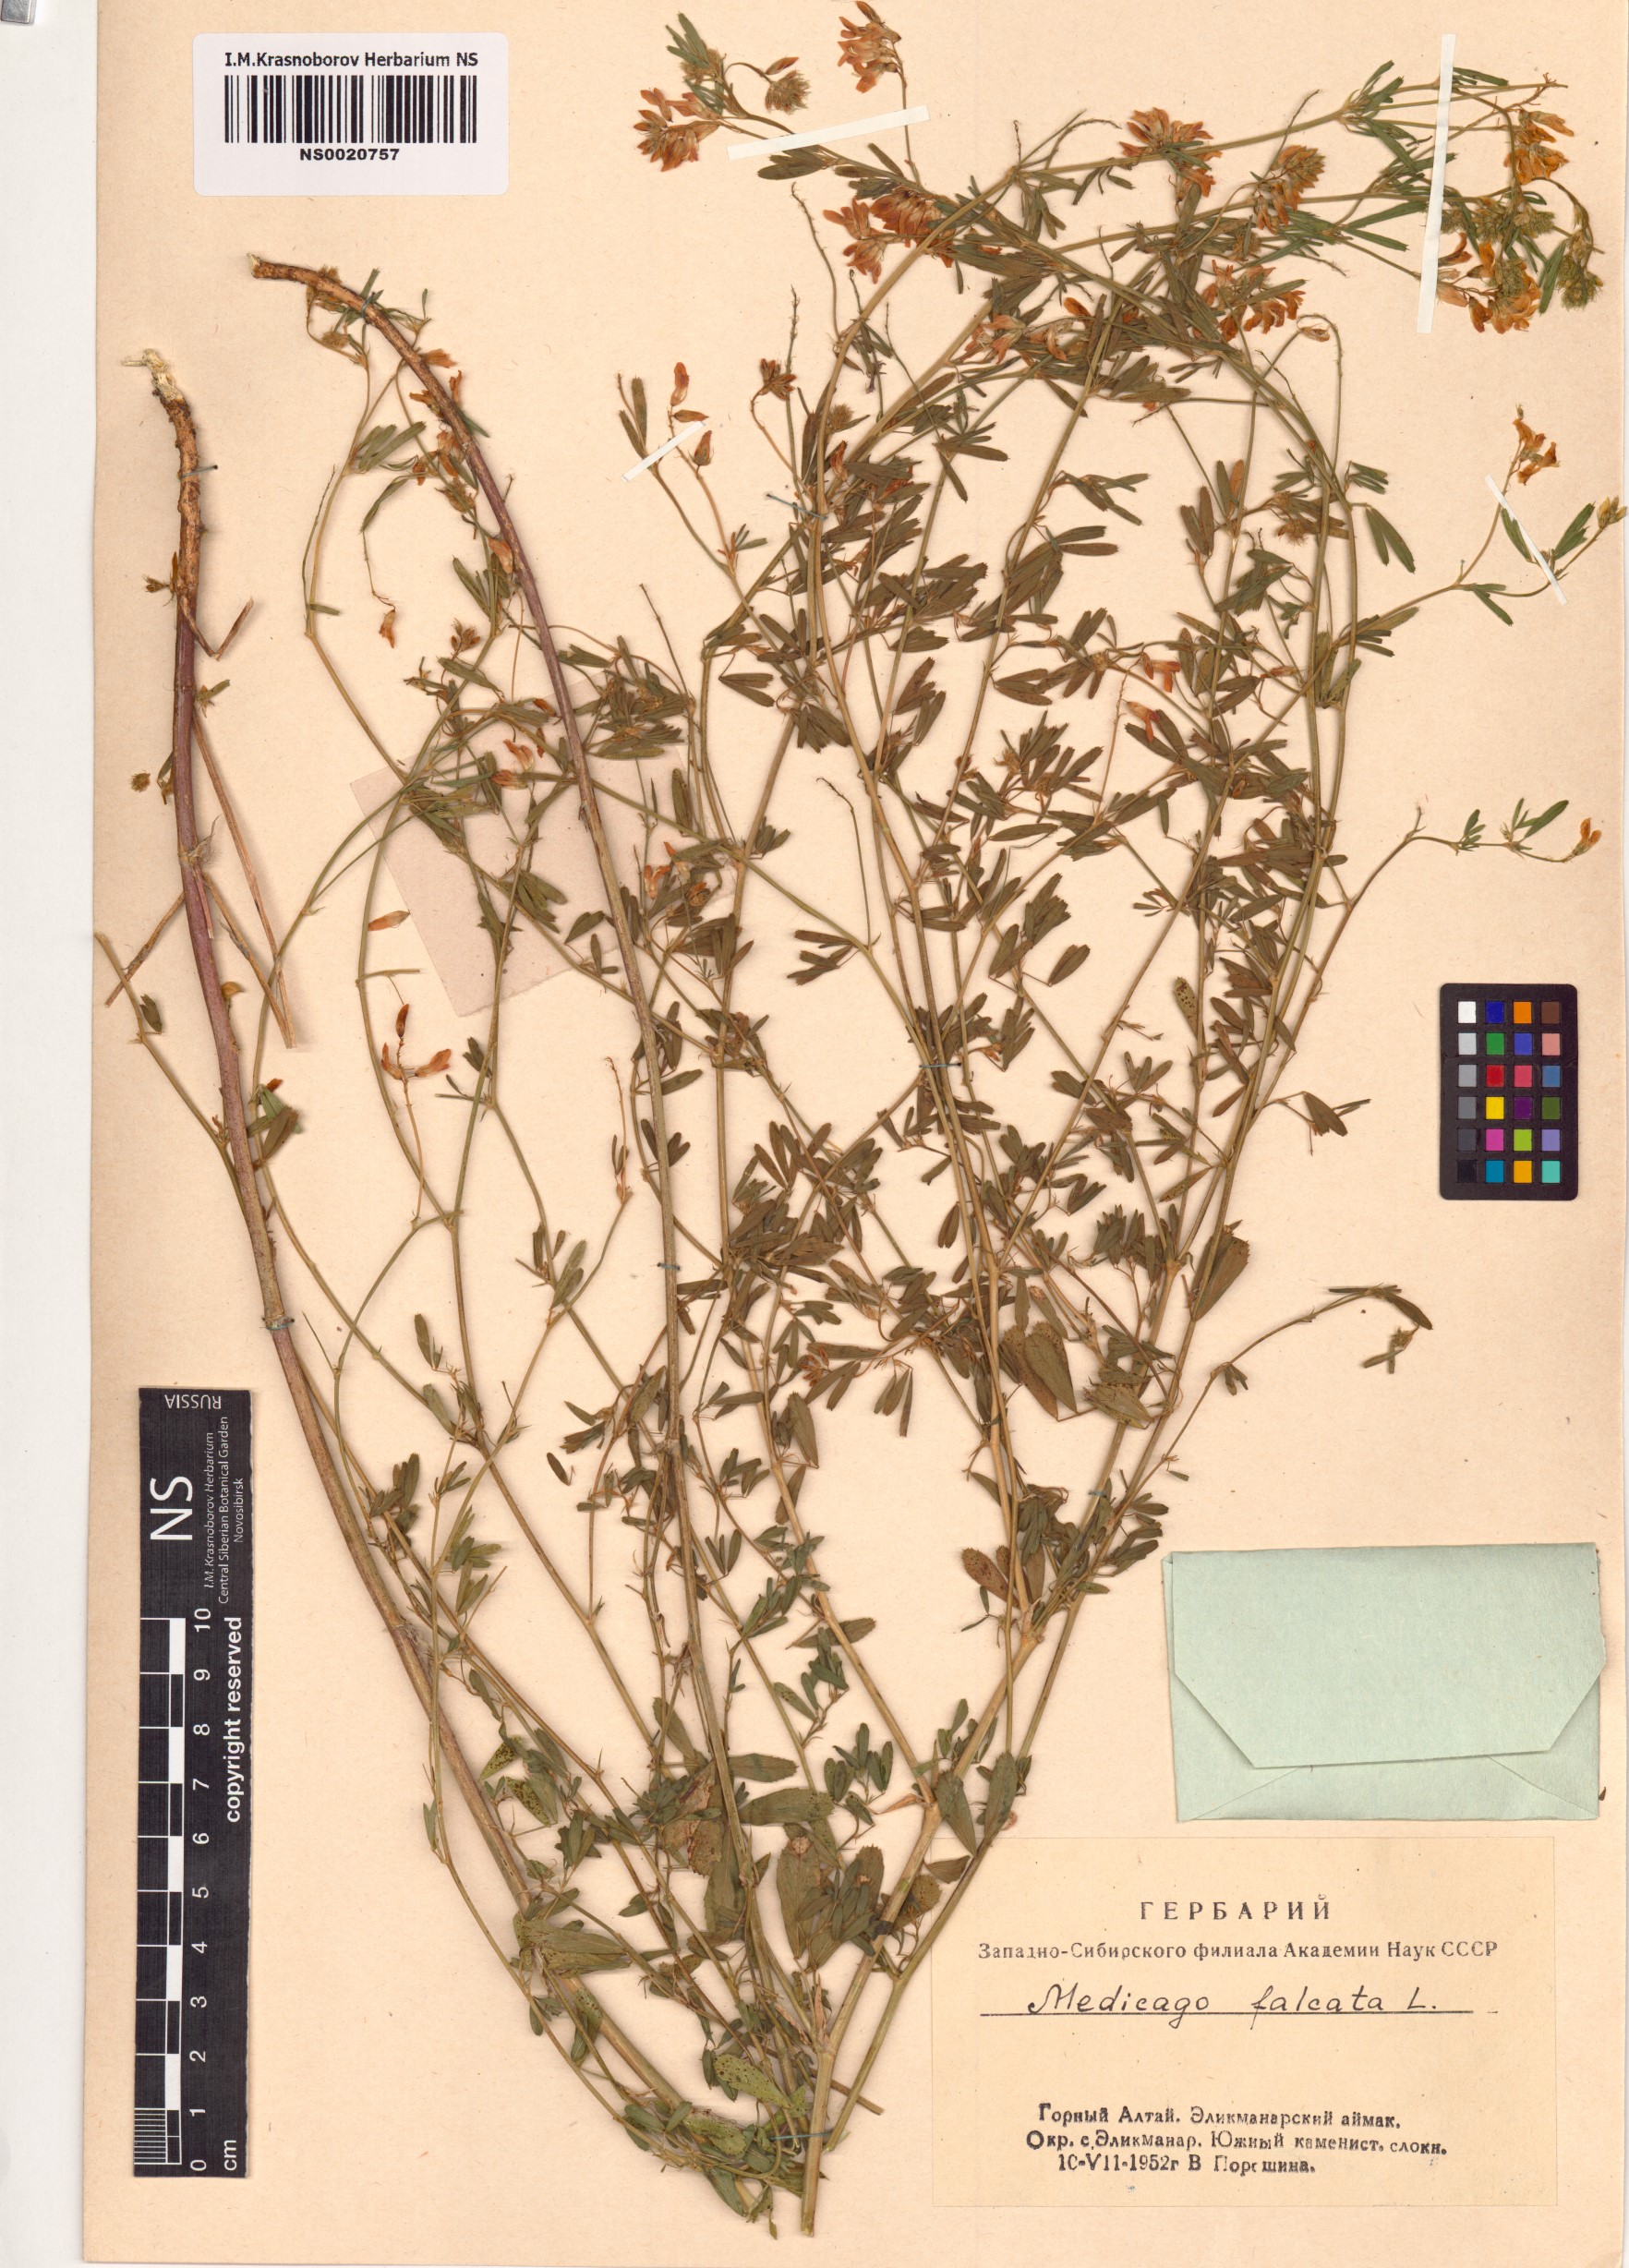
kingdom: Plantae
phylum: Tracheophyta
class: Magnoliopsida
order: Fabales
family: Fabaceae
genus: Medicago
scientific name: Medicago falcata
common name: Sickle medick
